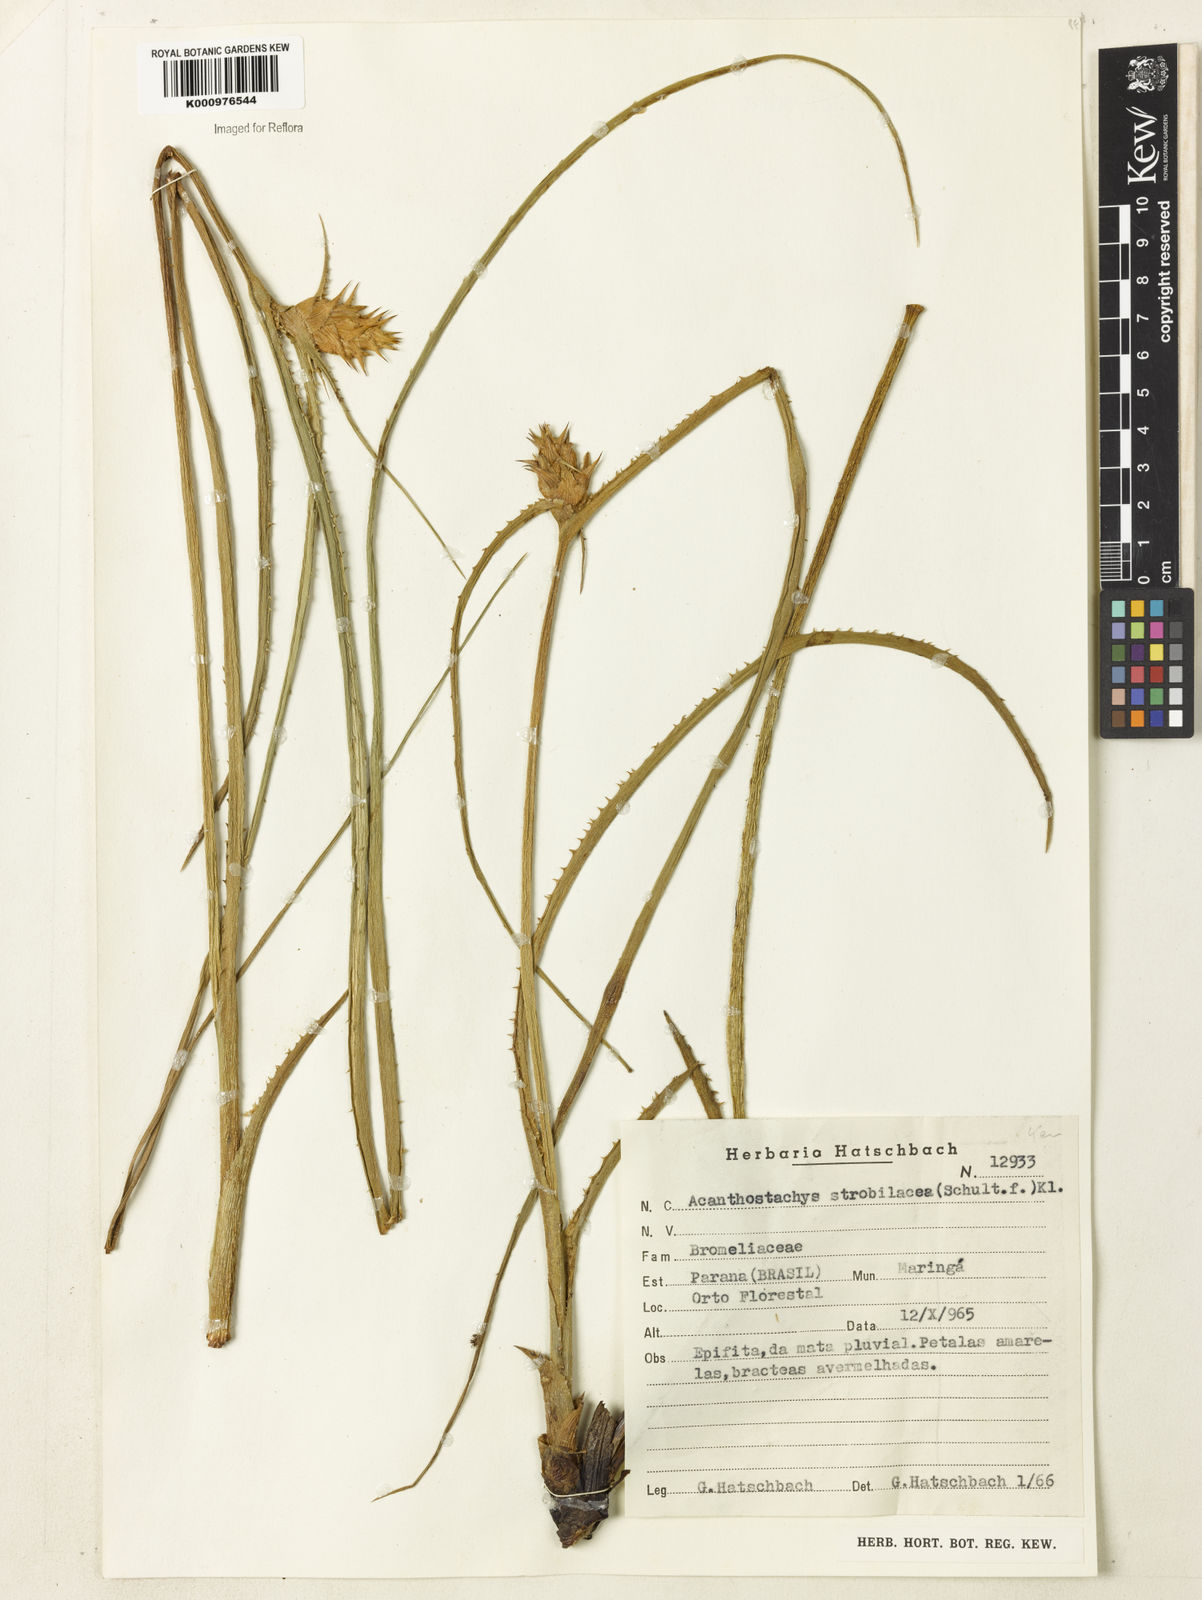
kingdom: Plantae
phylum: Tracheophyta
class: Liliopsida
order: Poales
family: Bromeliaceae
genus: Acanthostachys
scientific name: Acanthostachys strobilacea
